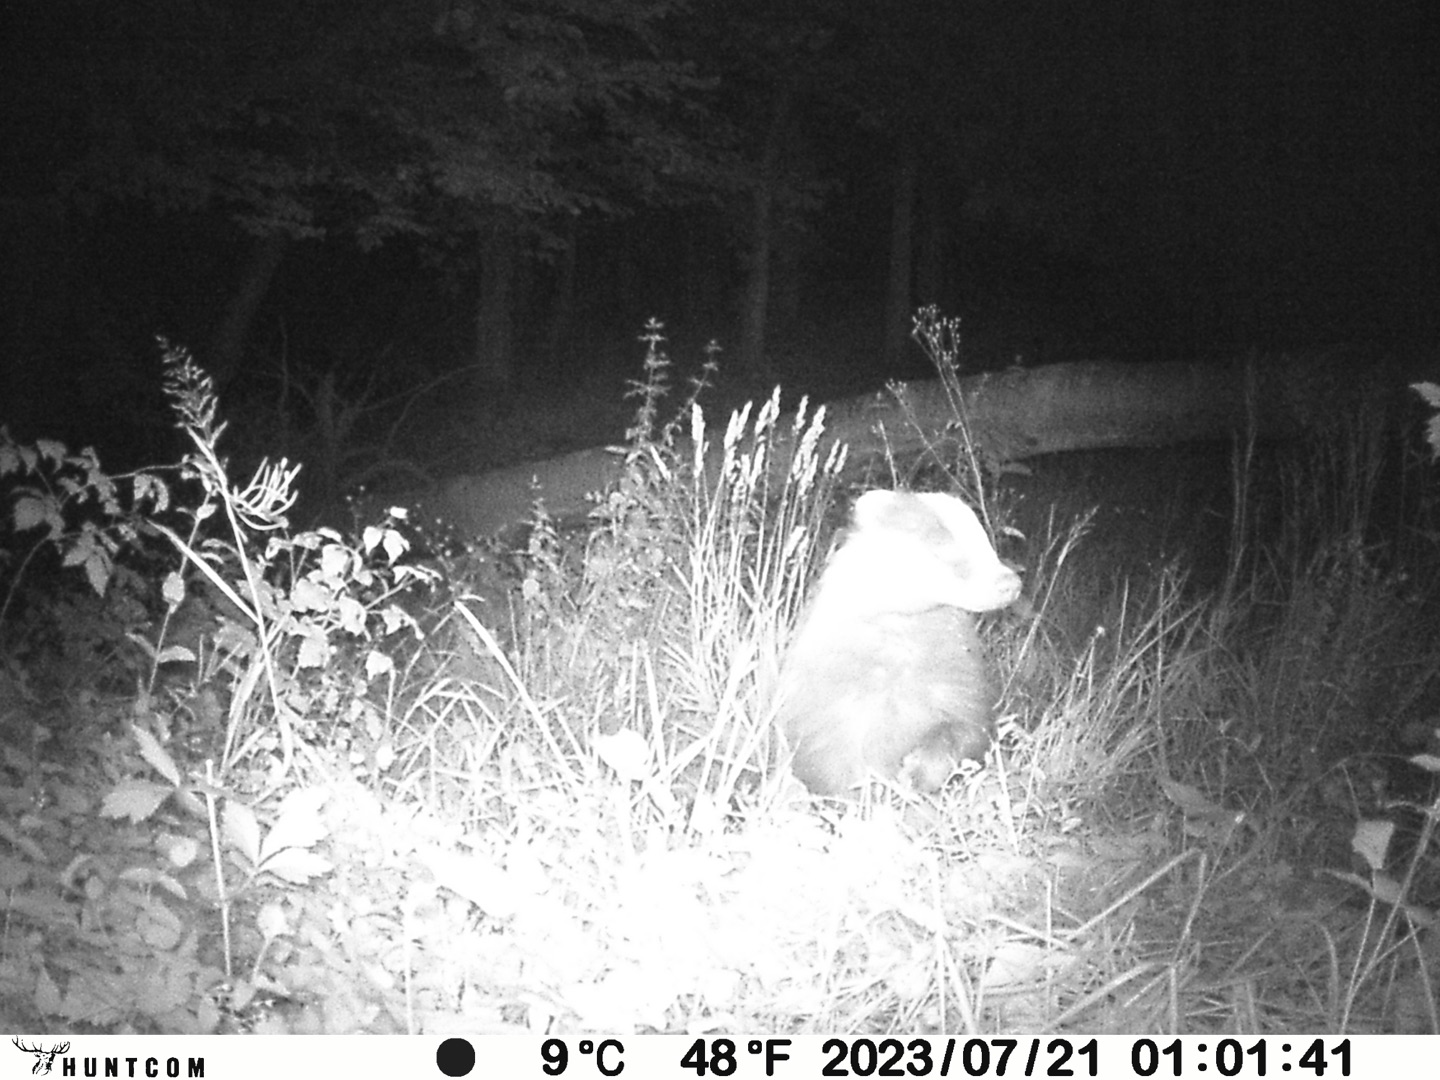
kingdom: Animalia
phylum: Chordata
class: Mammalia
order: Carnivora
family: Mustelidae
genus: Meles
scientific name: Meles meles
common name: Grævling
